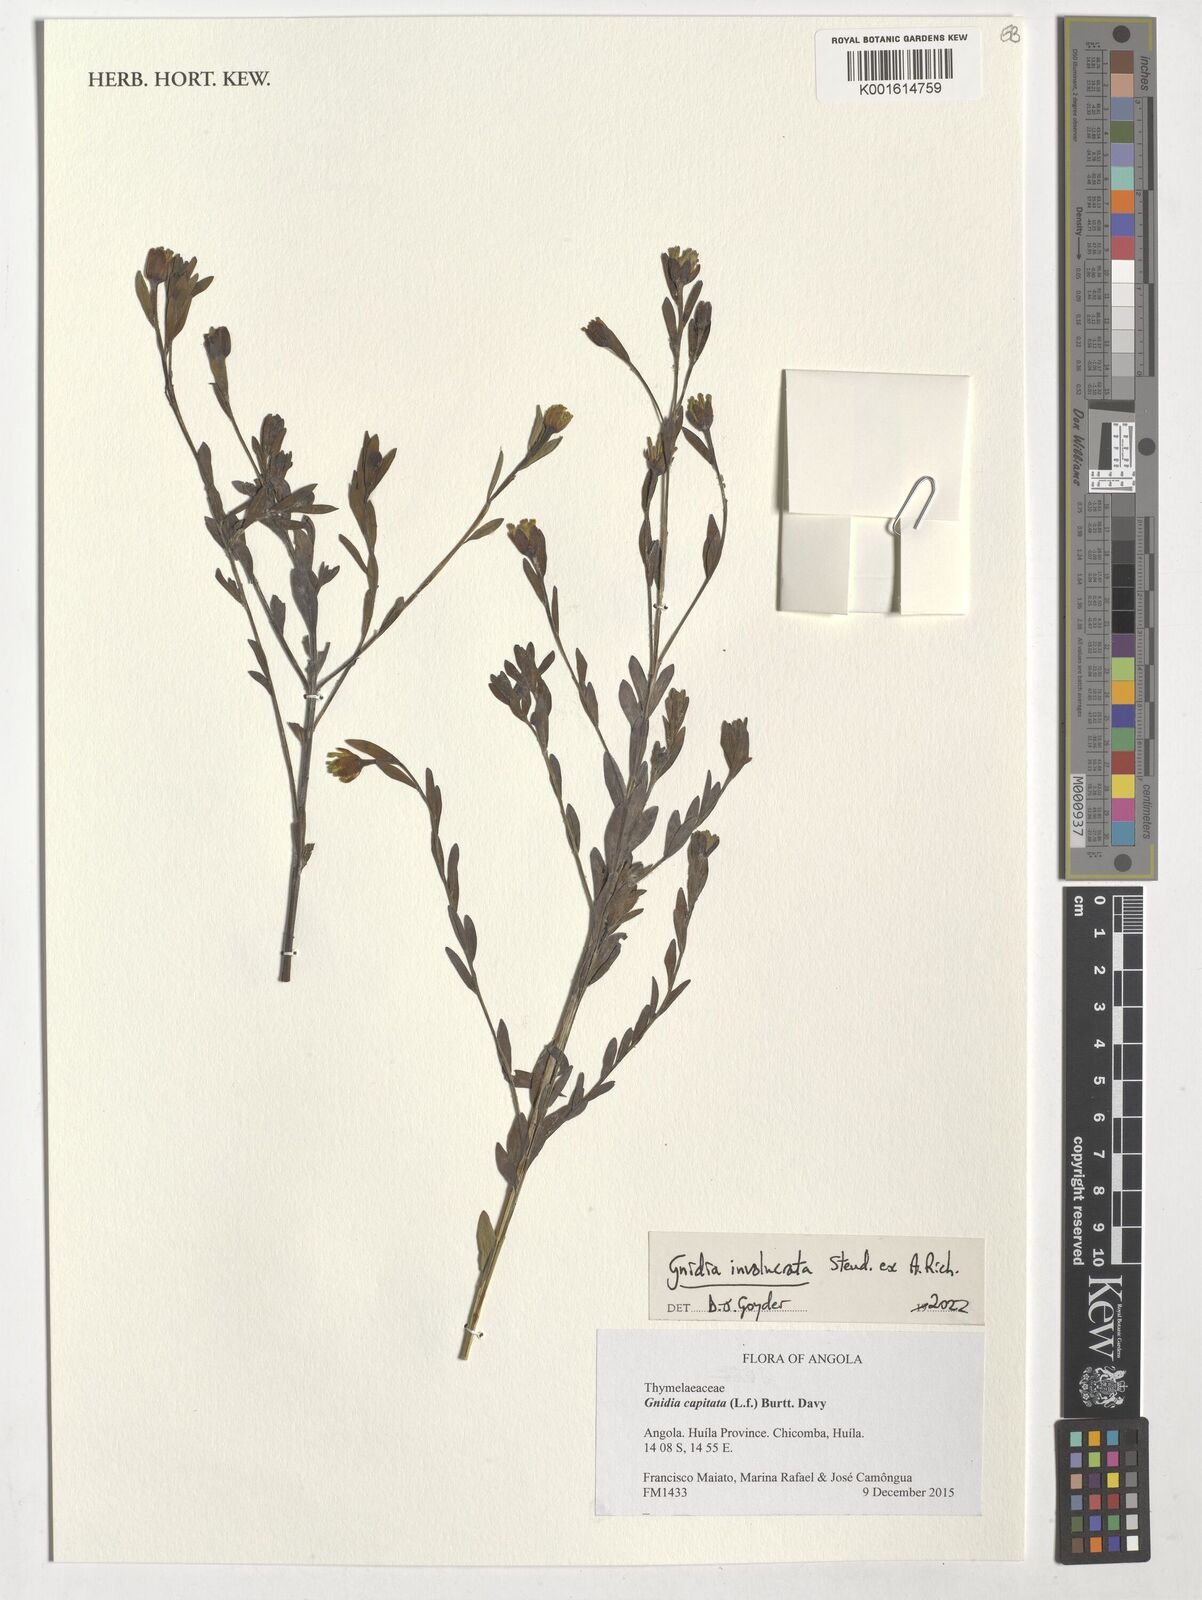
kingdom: Plantae
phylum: Tracheophyta
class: Magnoliopsida
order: Malvales
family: Thymelaeaceae
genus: Gnidia
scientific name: Gnidia involucrata
